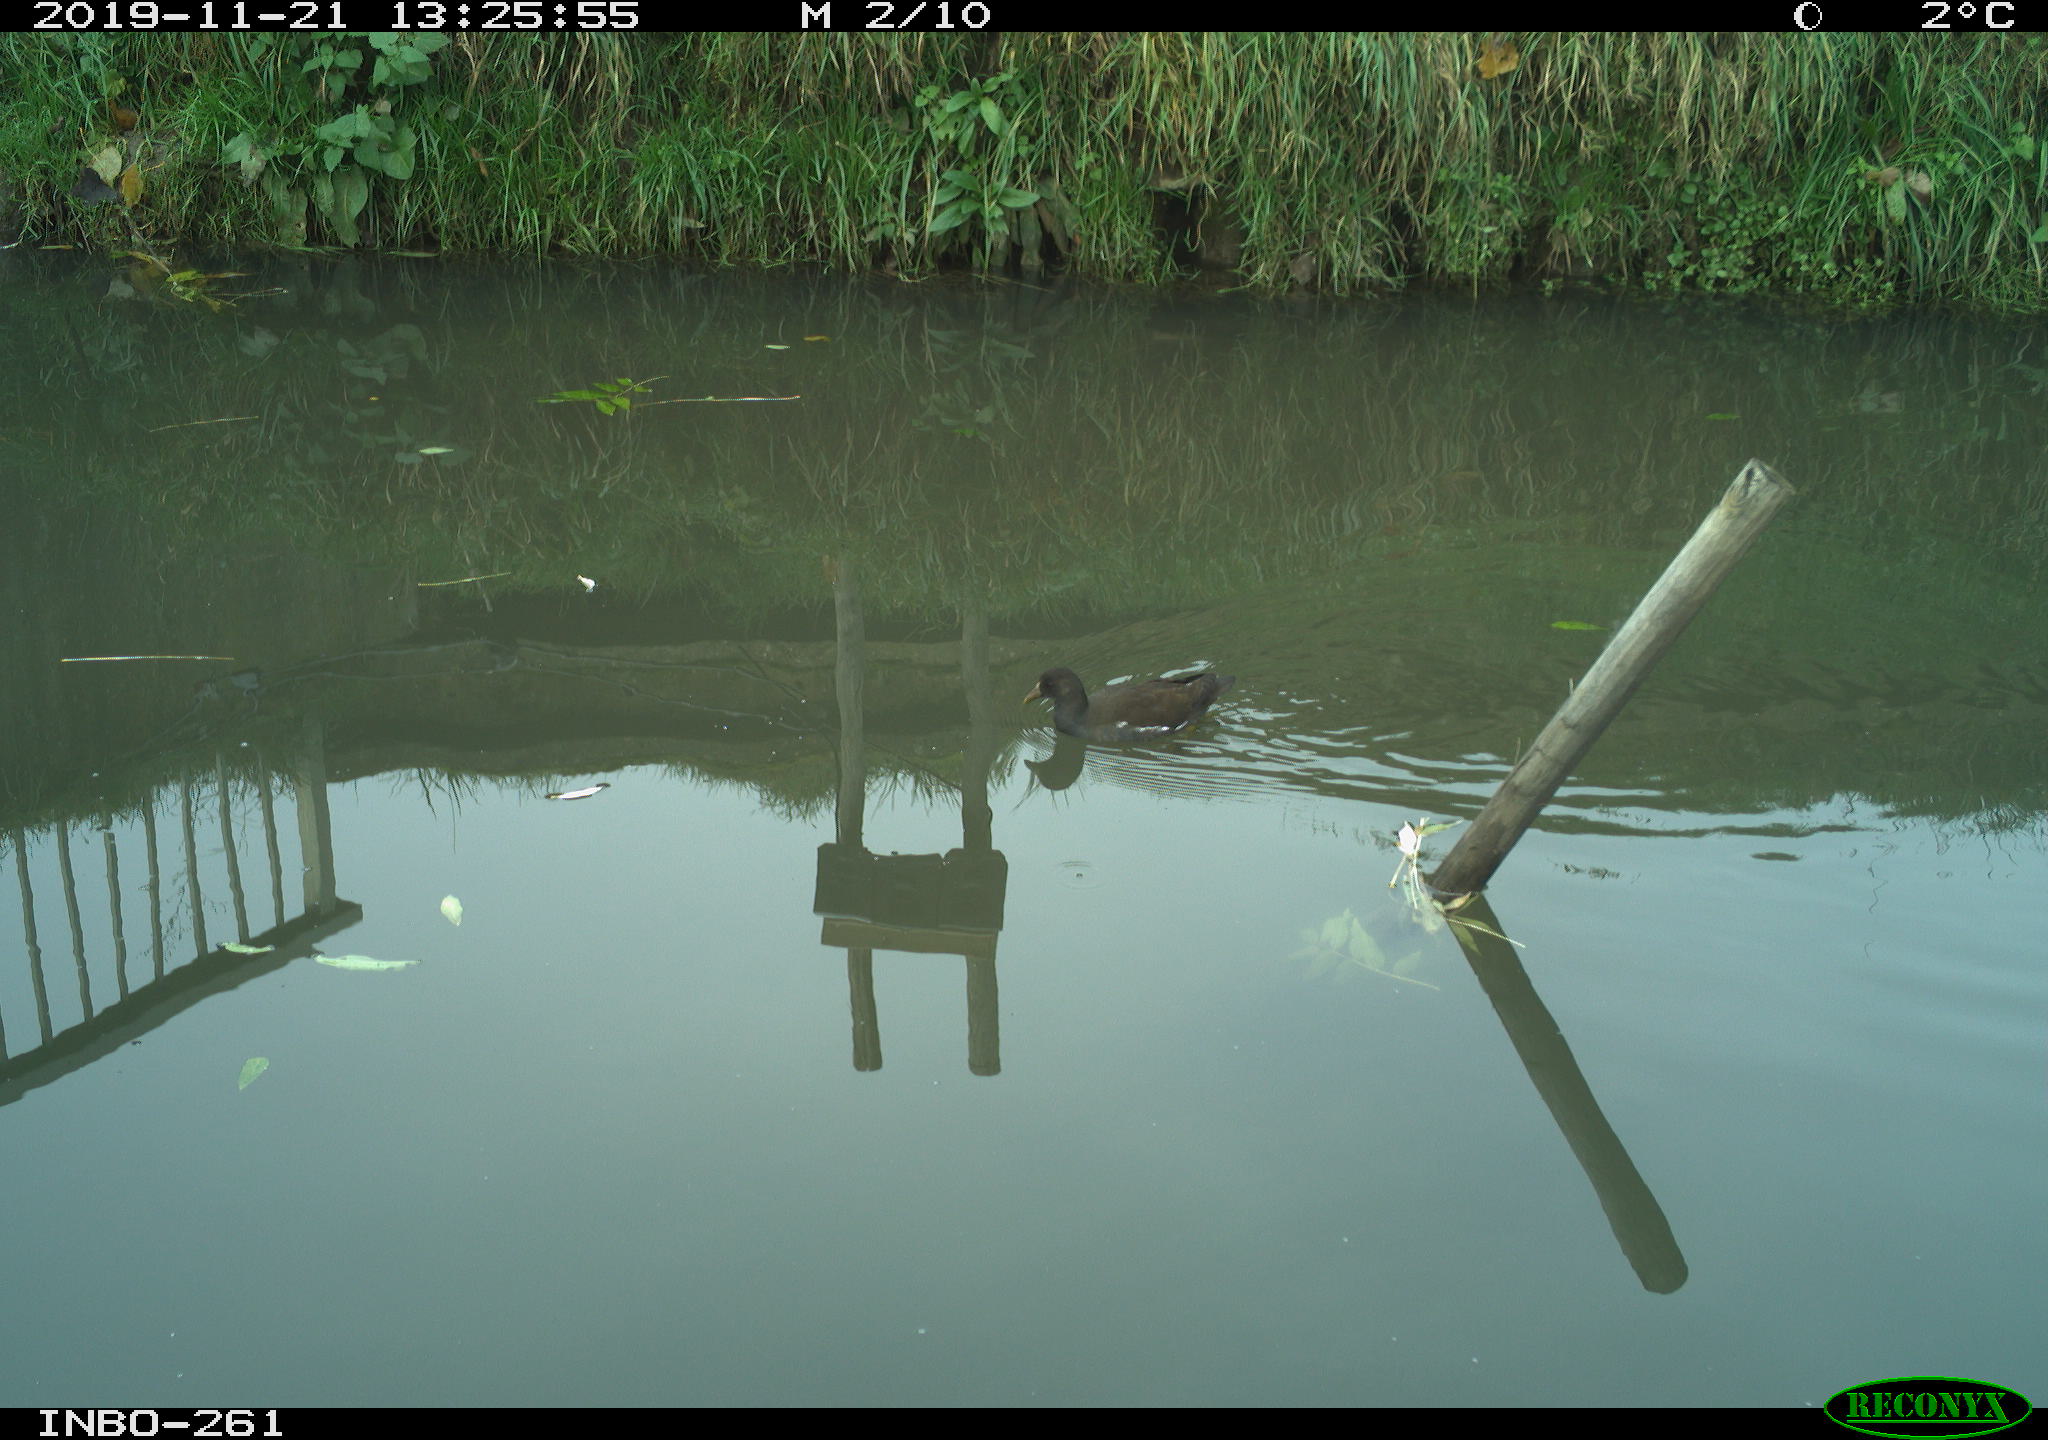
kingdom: Animalia
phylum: Chordata
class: Aves
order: Gruiformes
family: Rallidae
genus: Gallinula
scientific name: Gallinula chloropus
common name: Common moorhen
